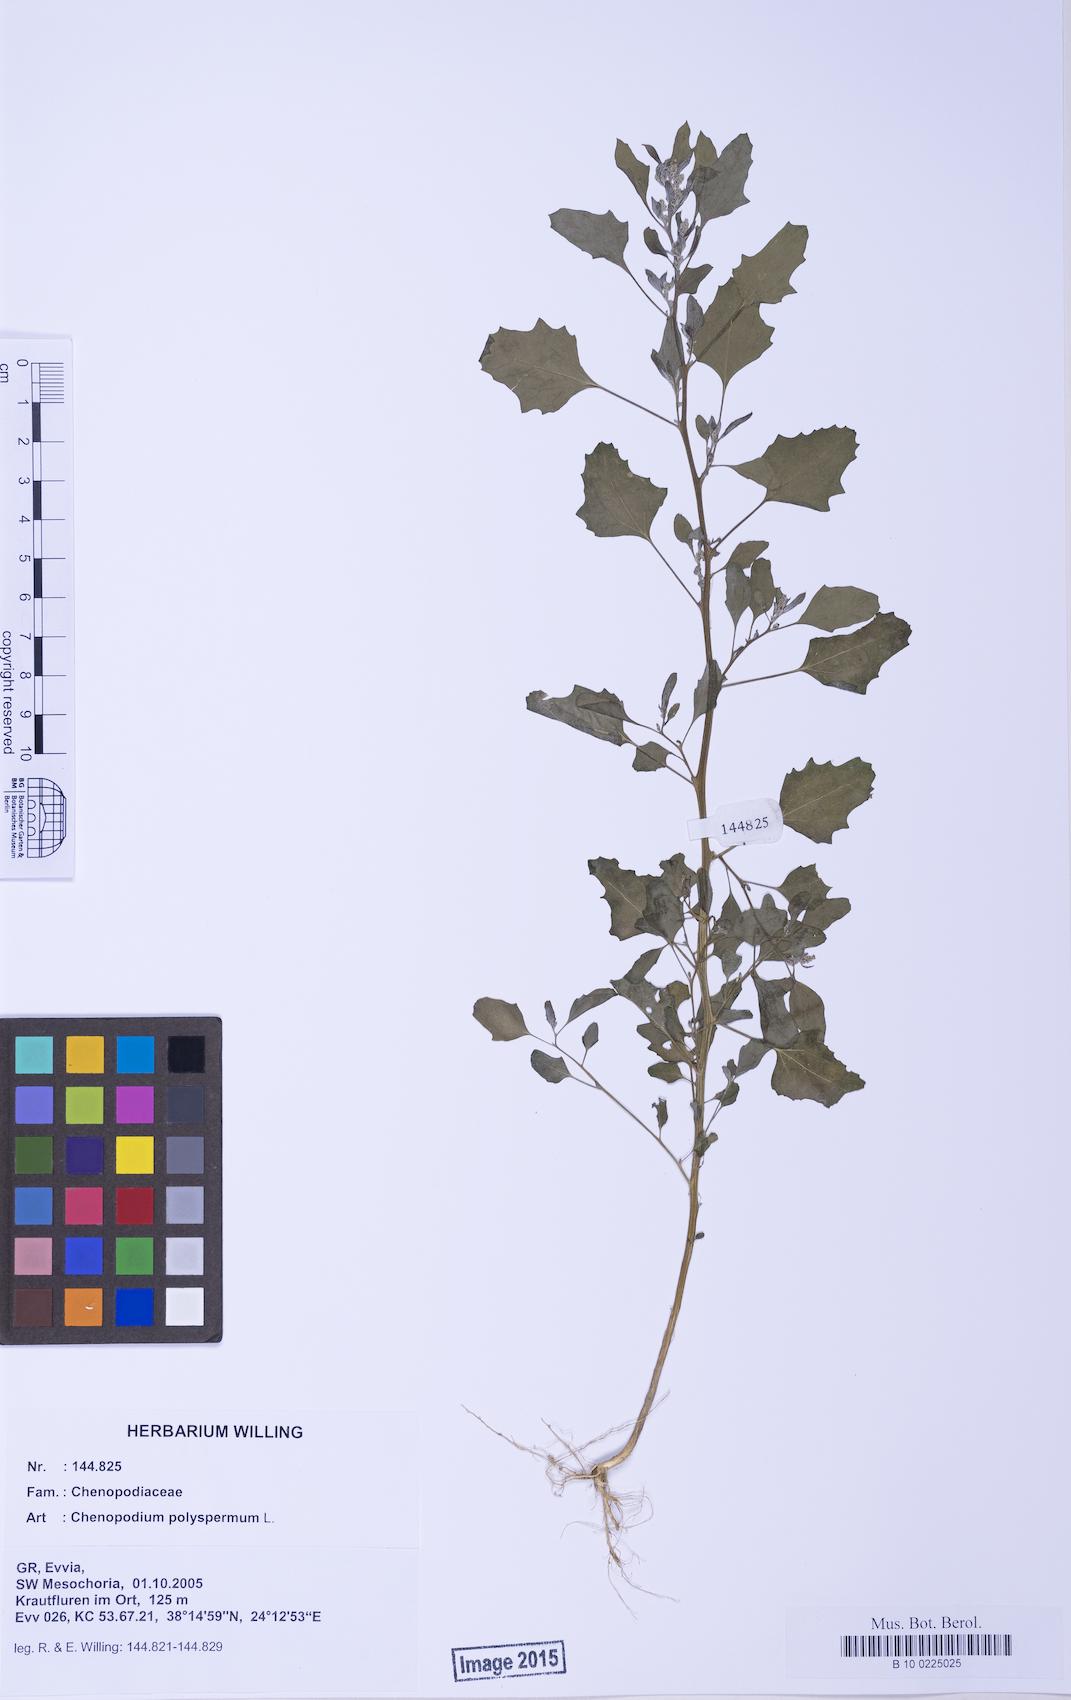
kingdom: Plantae
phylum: Tracheophyta
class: Magnoliopsida
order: Caryophyllales
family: Amaranthaceae
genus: Chenopodium
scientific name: Chenopodium album
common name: Fat-hen
